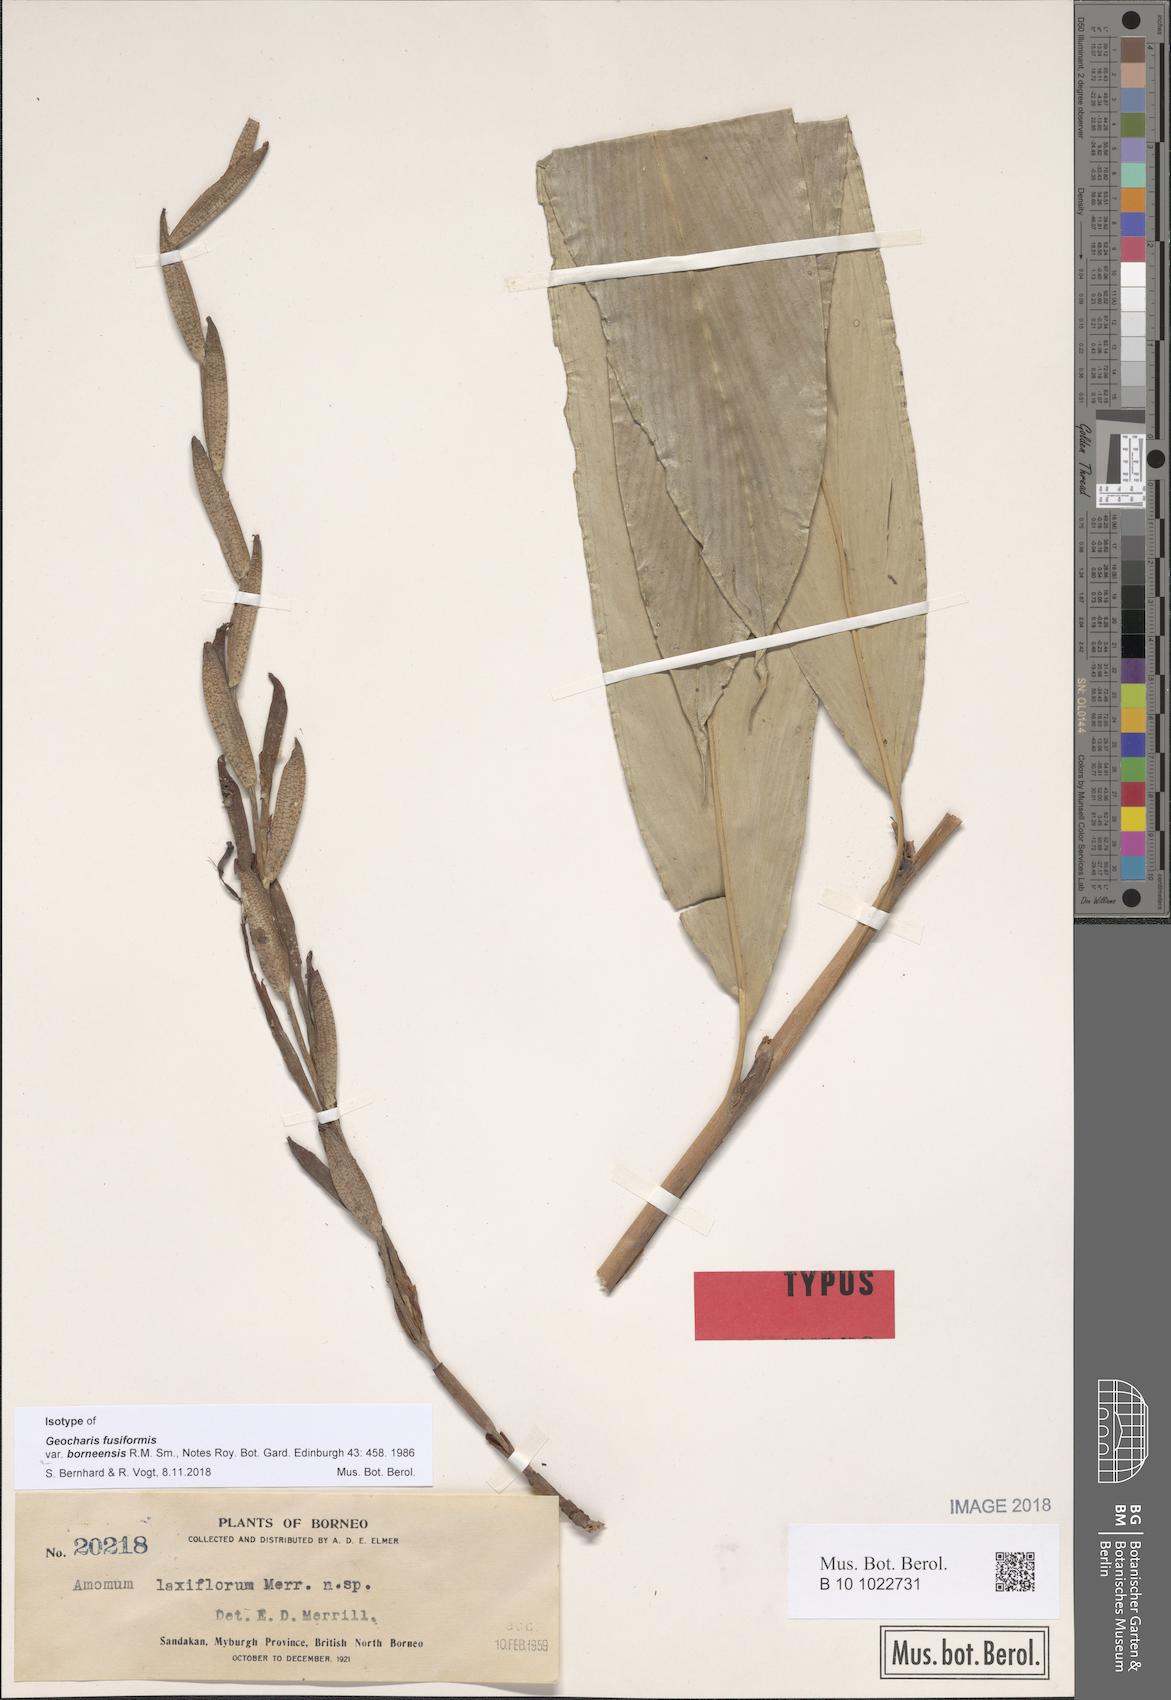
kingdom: Plantae
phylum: Tracheophyta
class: Liliopsida
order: Zingiberales
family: Zingiberaceae
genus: Geocharis
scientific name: Geocharis fusiformis
